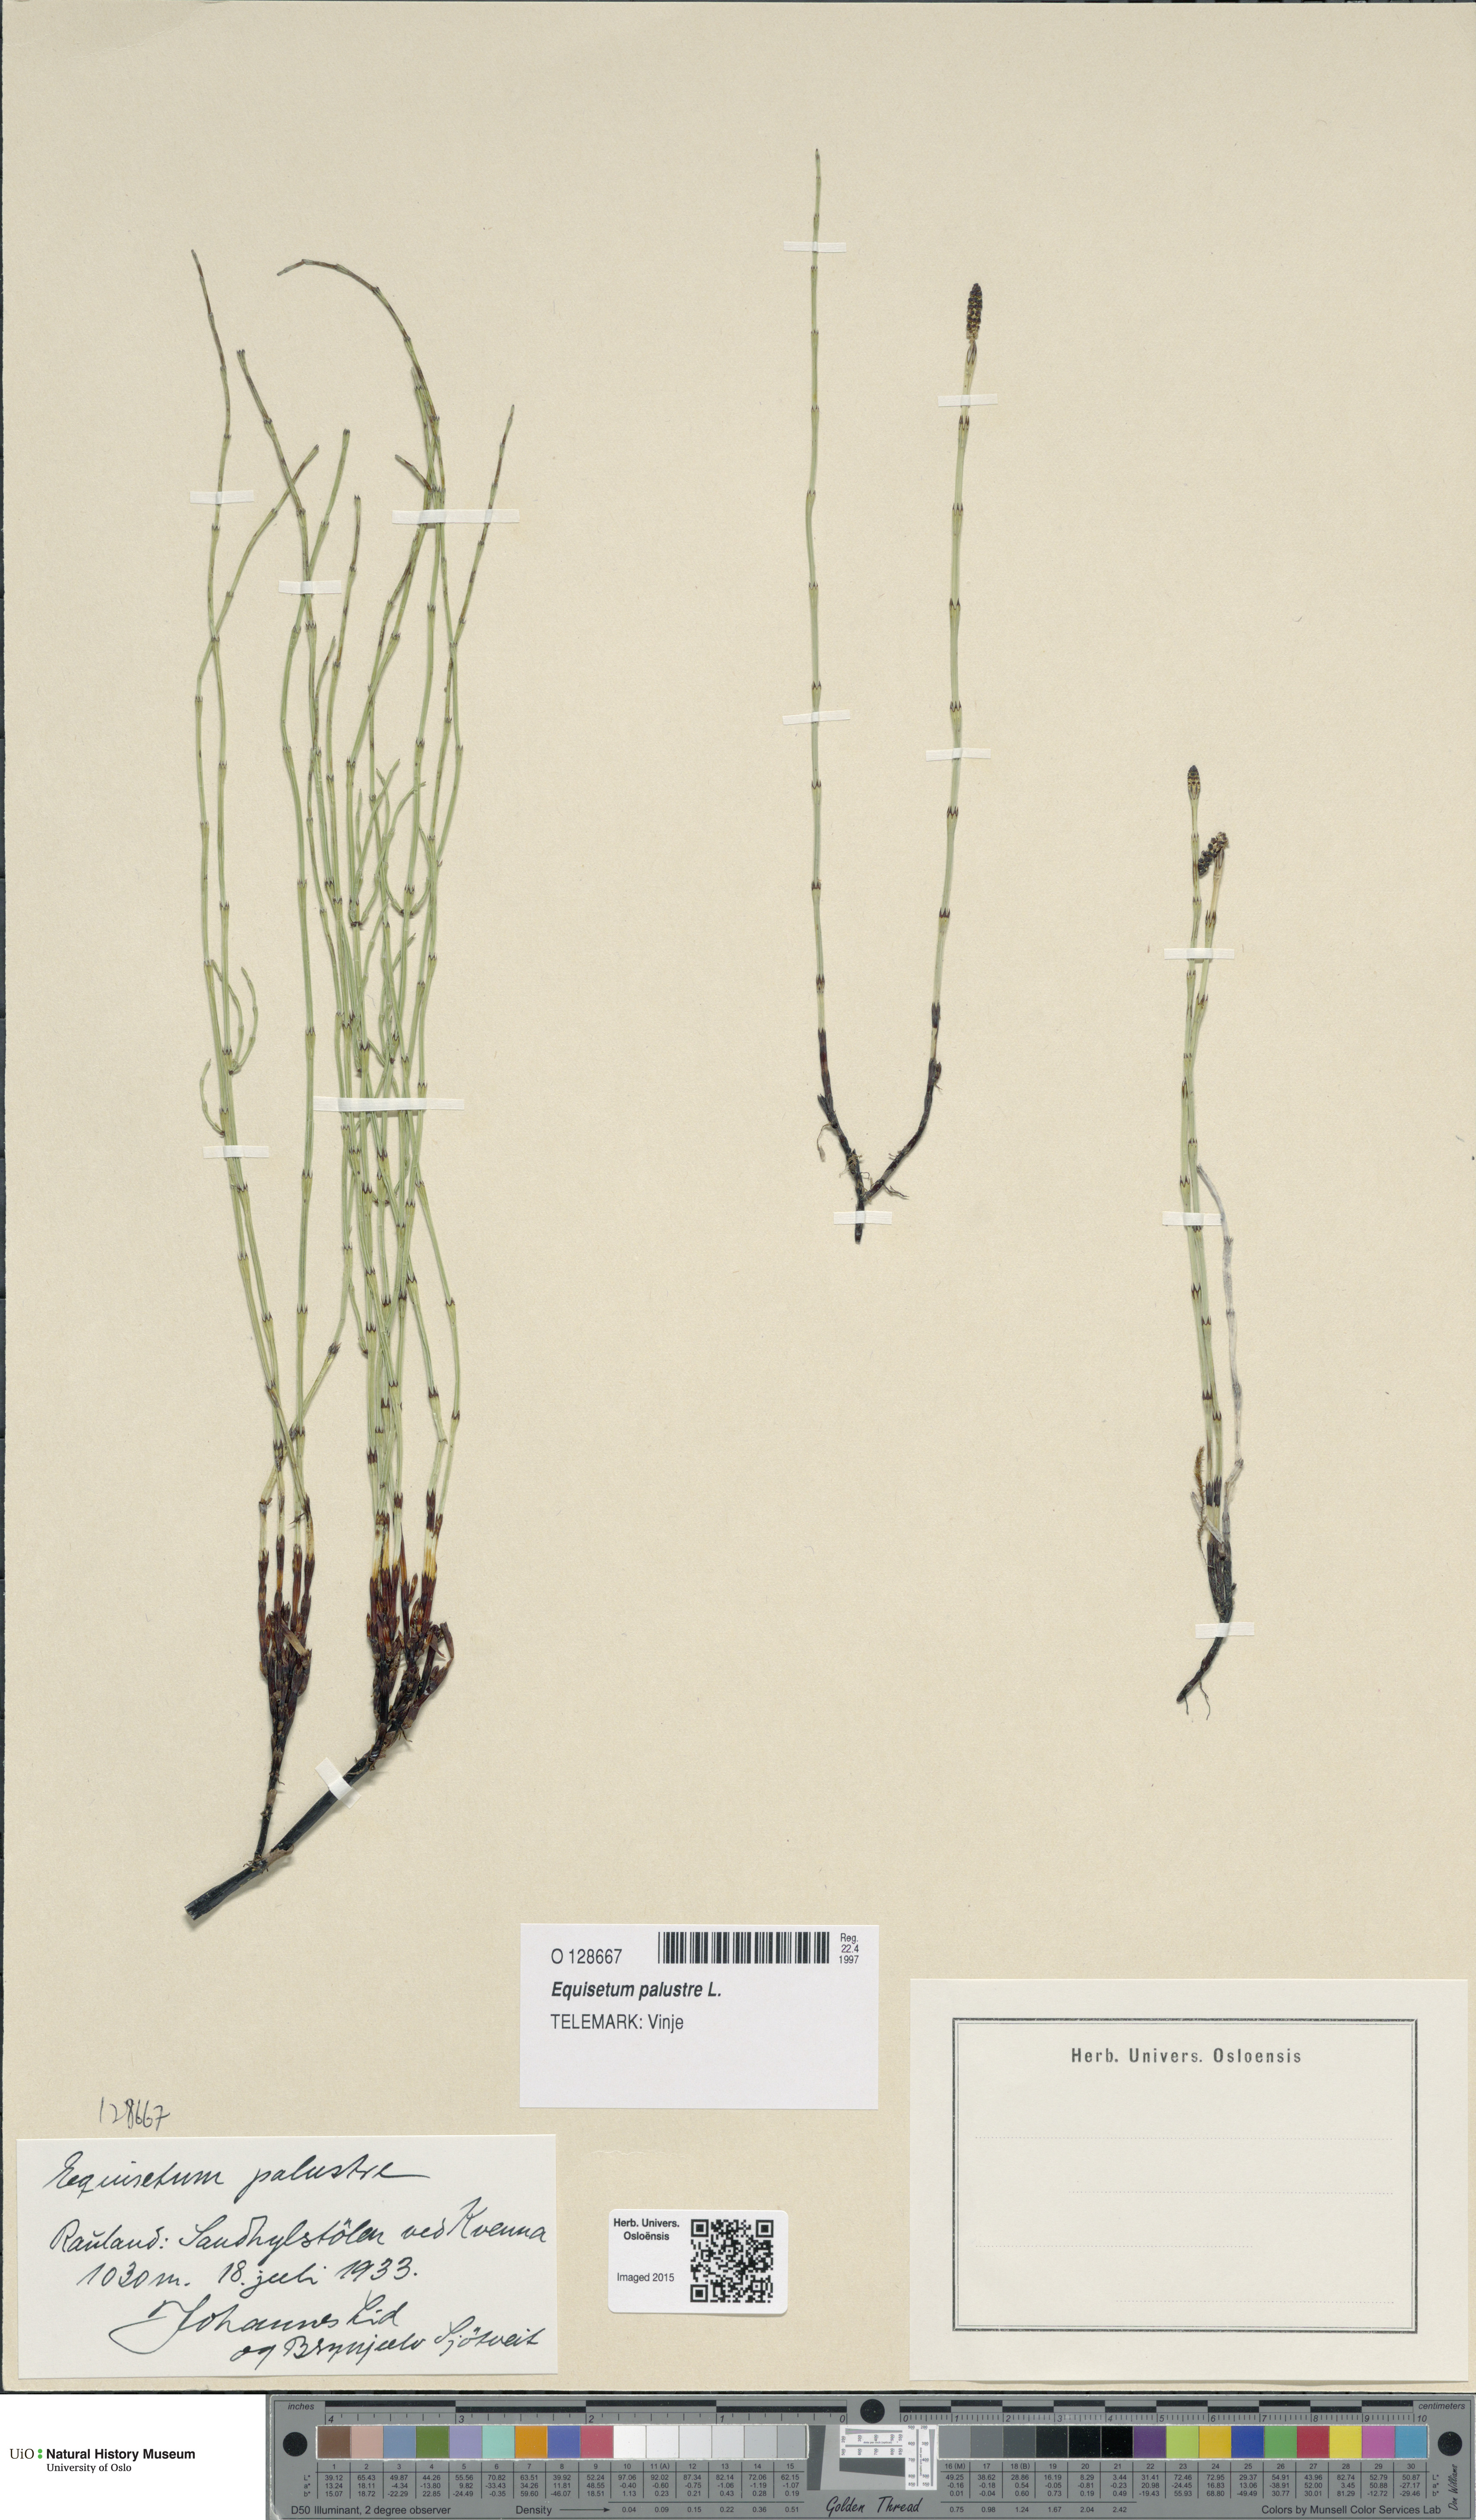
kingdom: Plantae
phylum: Tracheophyta
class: Polypodiopsida
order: Equisetales
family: Equisetaceae
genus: Equisetum
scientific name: Equisetum palustre
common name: Marsh horsetail
